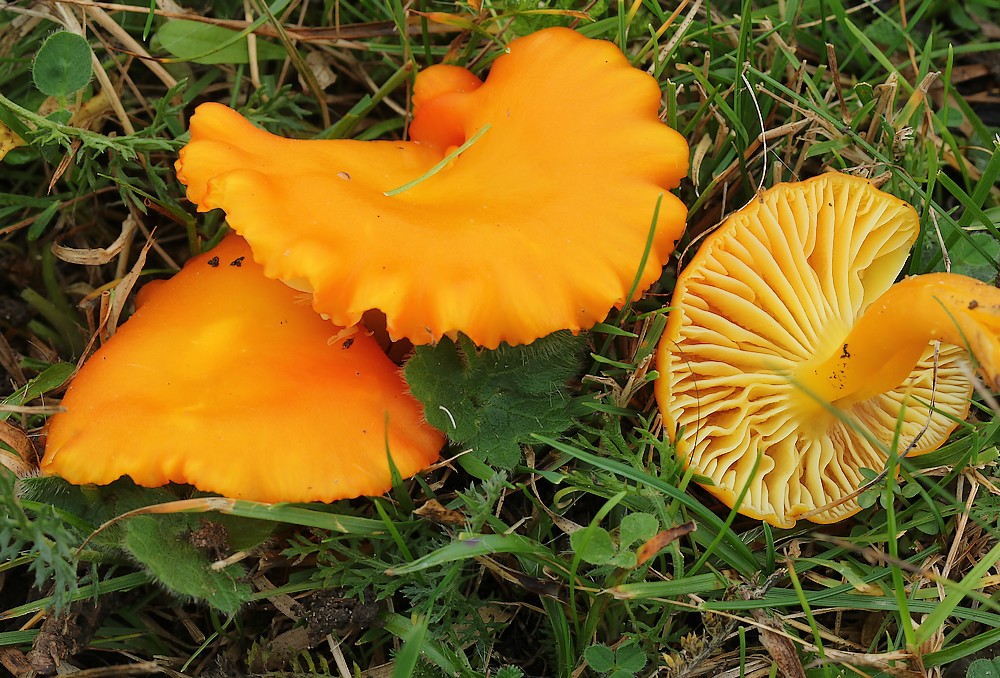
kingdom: Fungi
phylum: Basidiomycota
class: Agaricomycetes
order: Agaricales
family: Hygrophoraceae
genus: Hygrocybe
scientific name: Hygrocybe miniata
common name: mønje-vokshat
